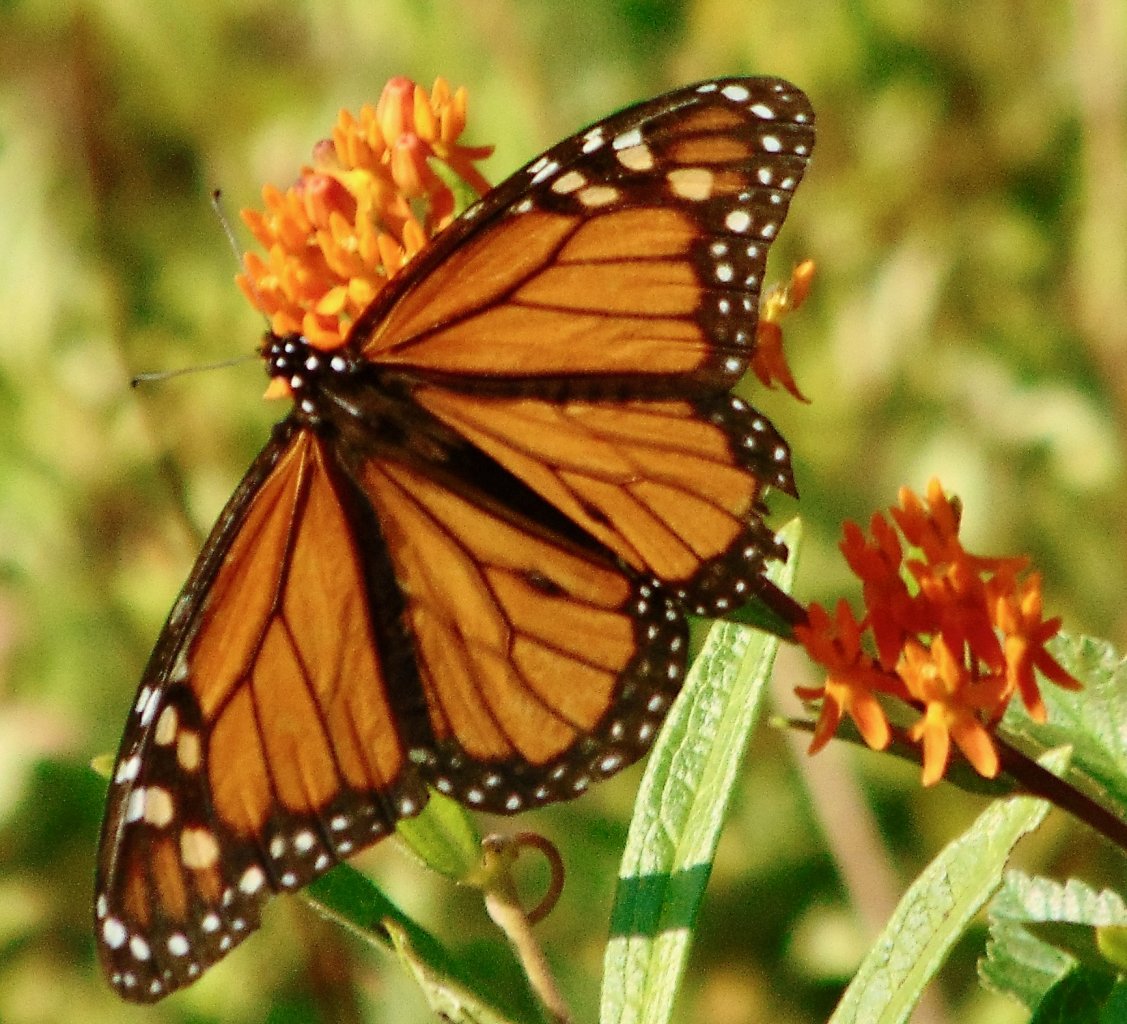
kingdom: Animalia
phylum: Arthropoda
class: Insecta
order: Lepidoptera
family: Nymphalidae
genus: Danaus
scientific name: Danaus plexippus
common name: Monarch
